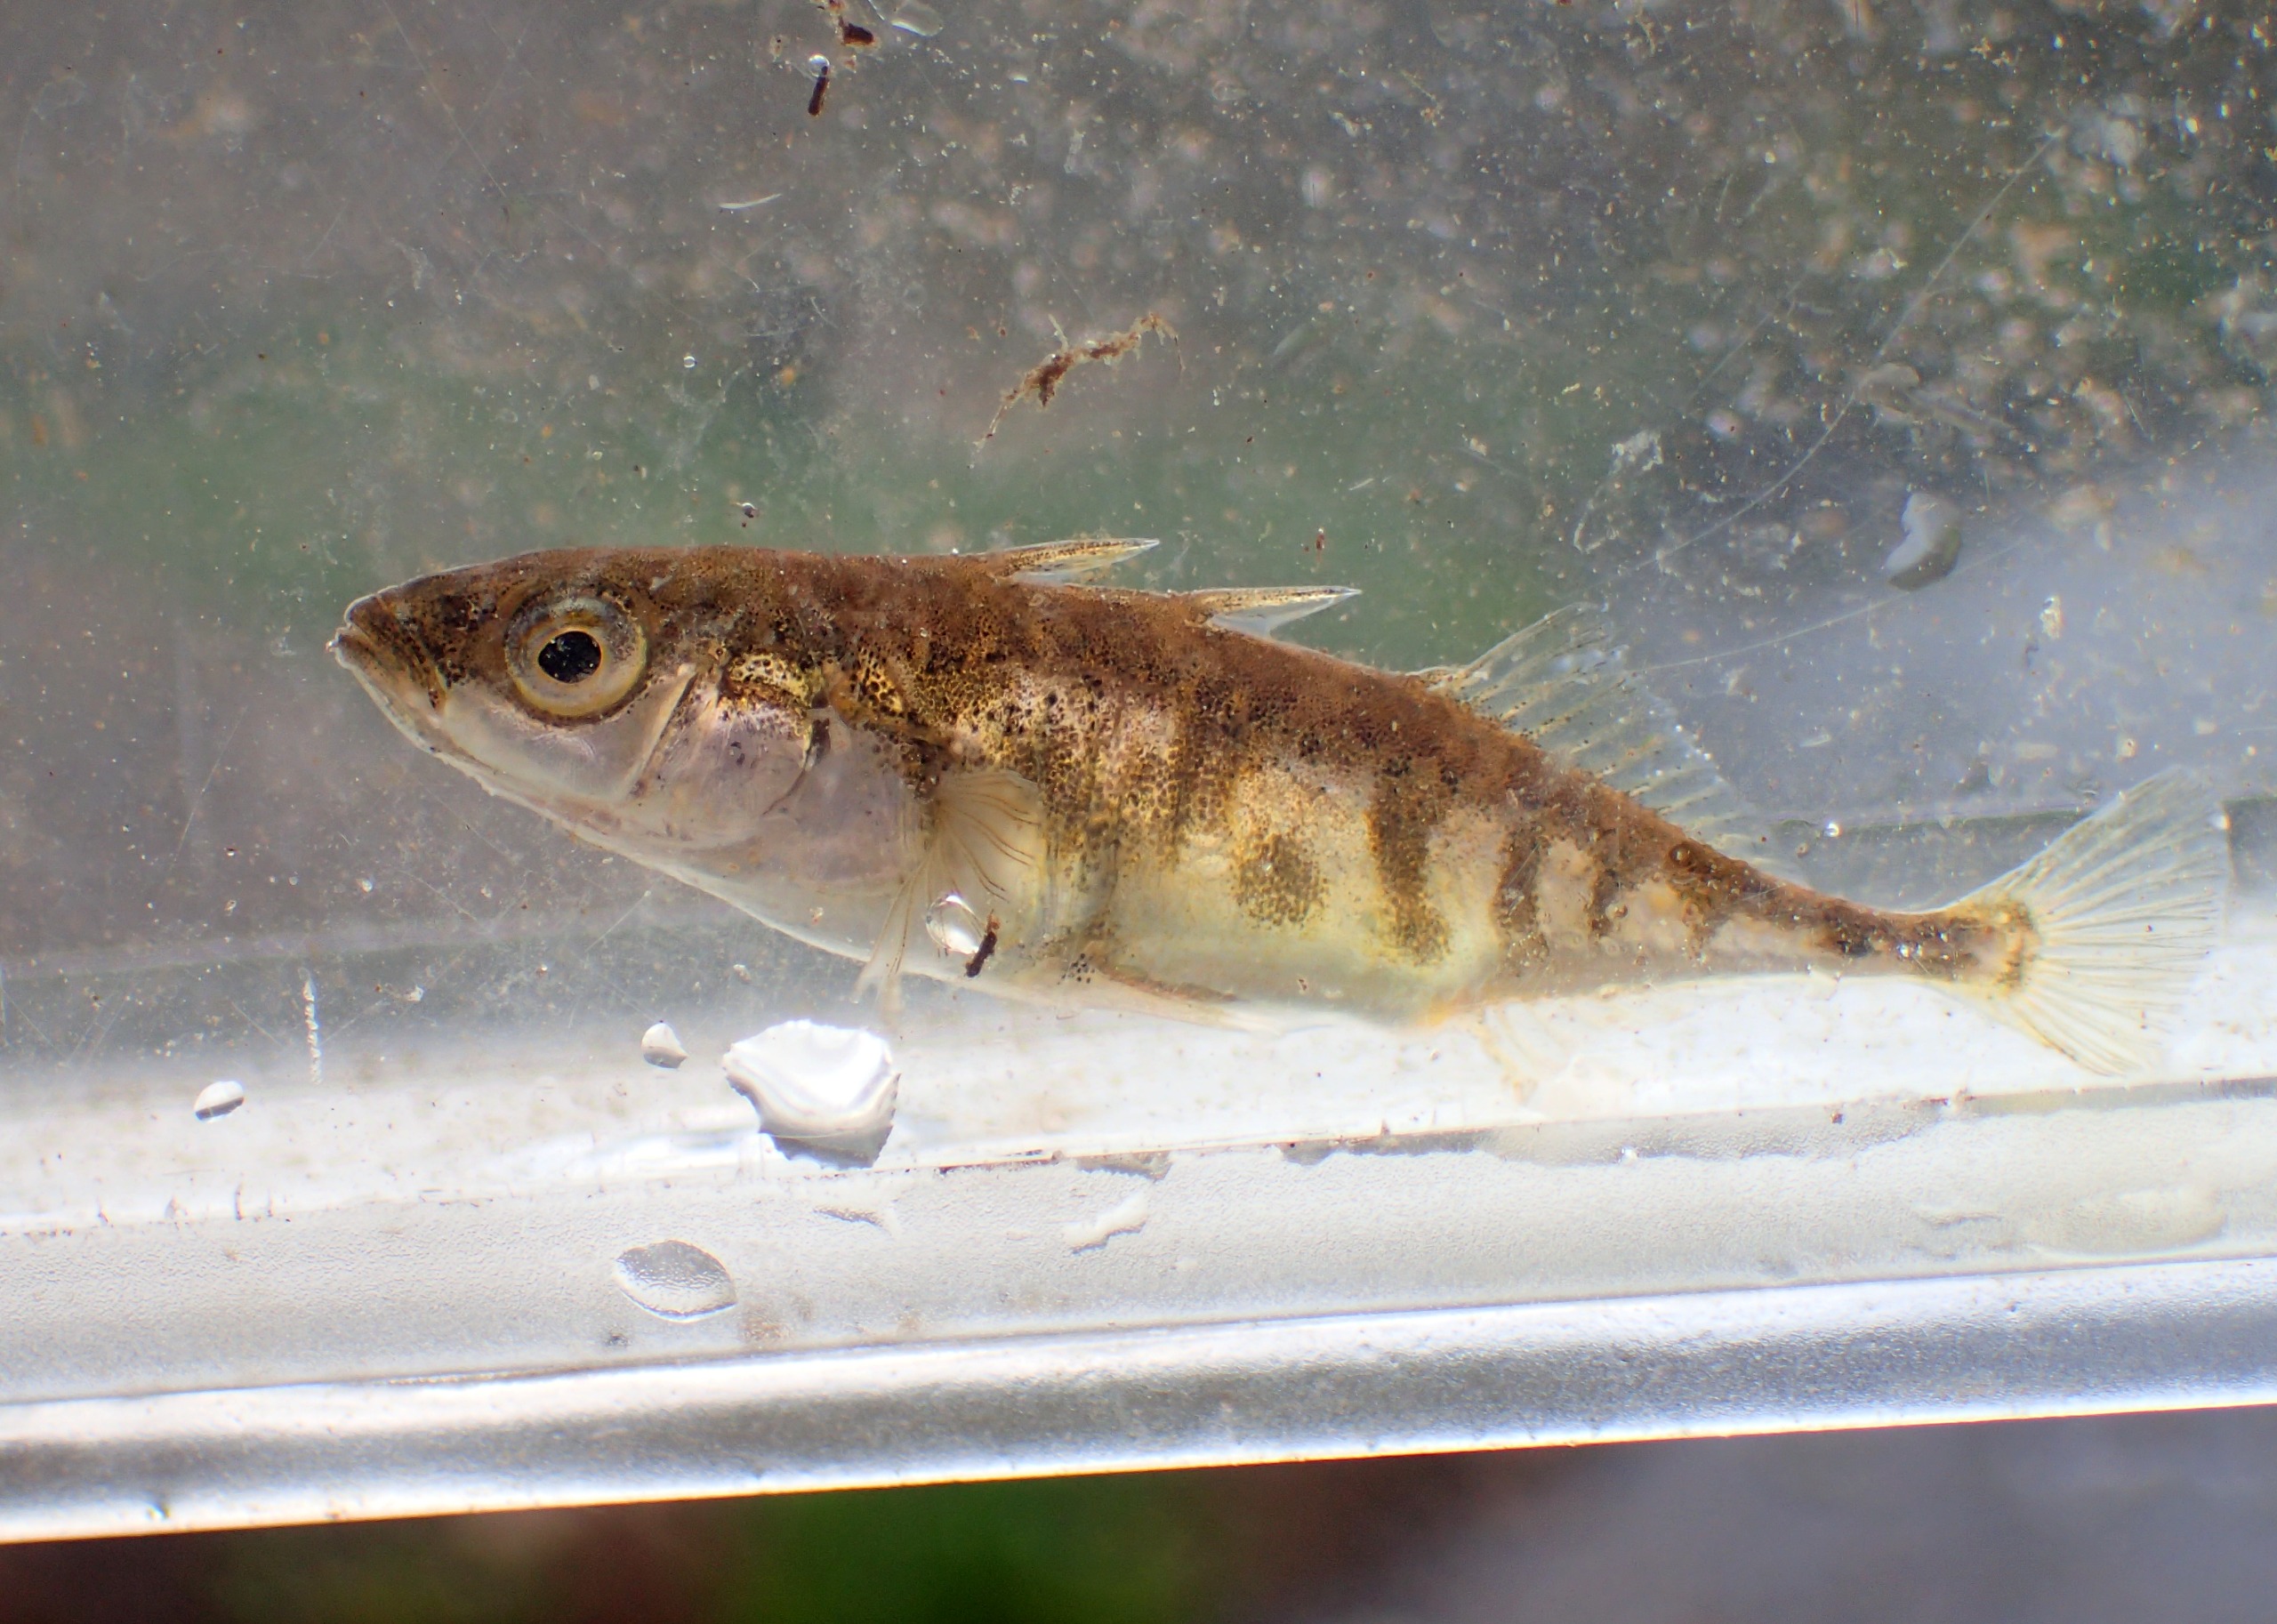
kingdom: Animalia
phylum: Chordata
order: Gasterosteiformes
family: Gasterosteidae
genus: Gasterosteus
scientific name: Gasterosteus aculeatus
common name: Trepigget hundestejle
